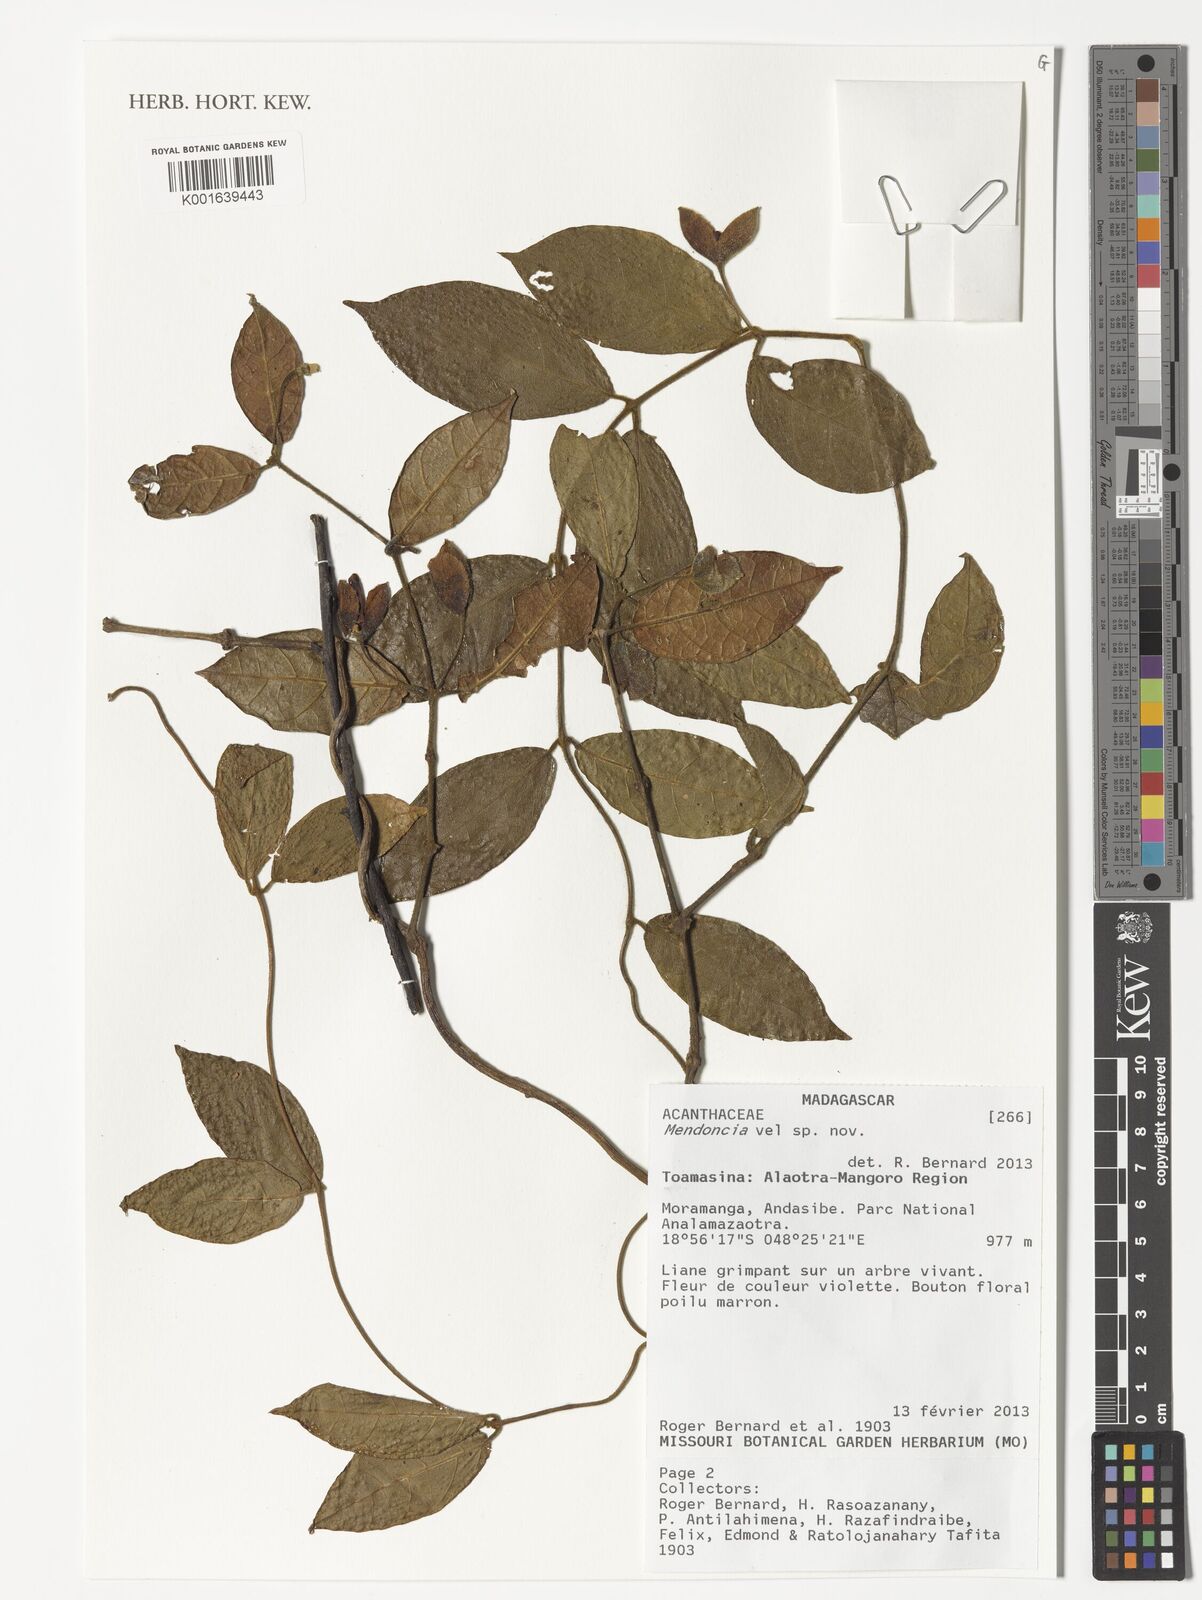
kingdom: Plantae
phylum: Tracheophyta
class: Magnoliopsida
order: Lamiales
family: Acanthaceae
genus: Mendoncia
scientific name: Mendoncia
